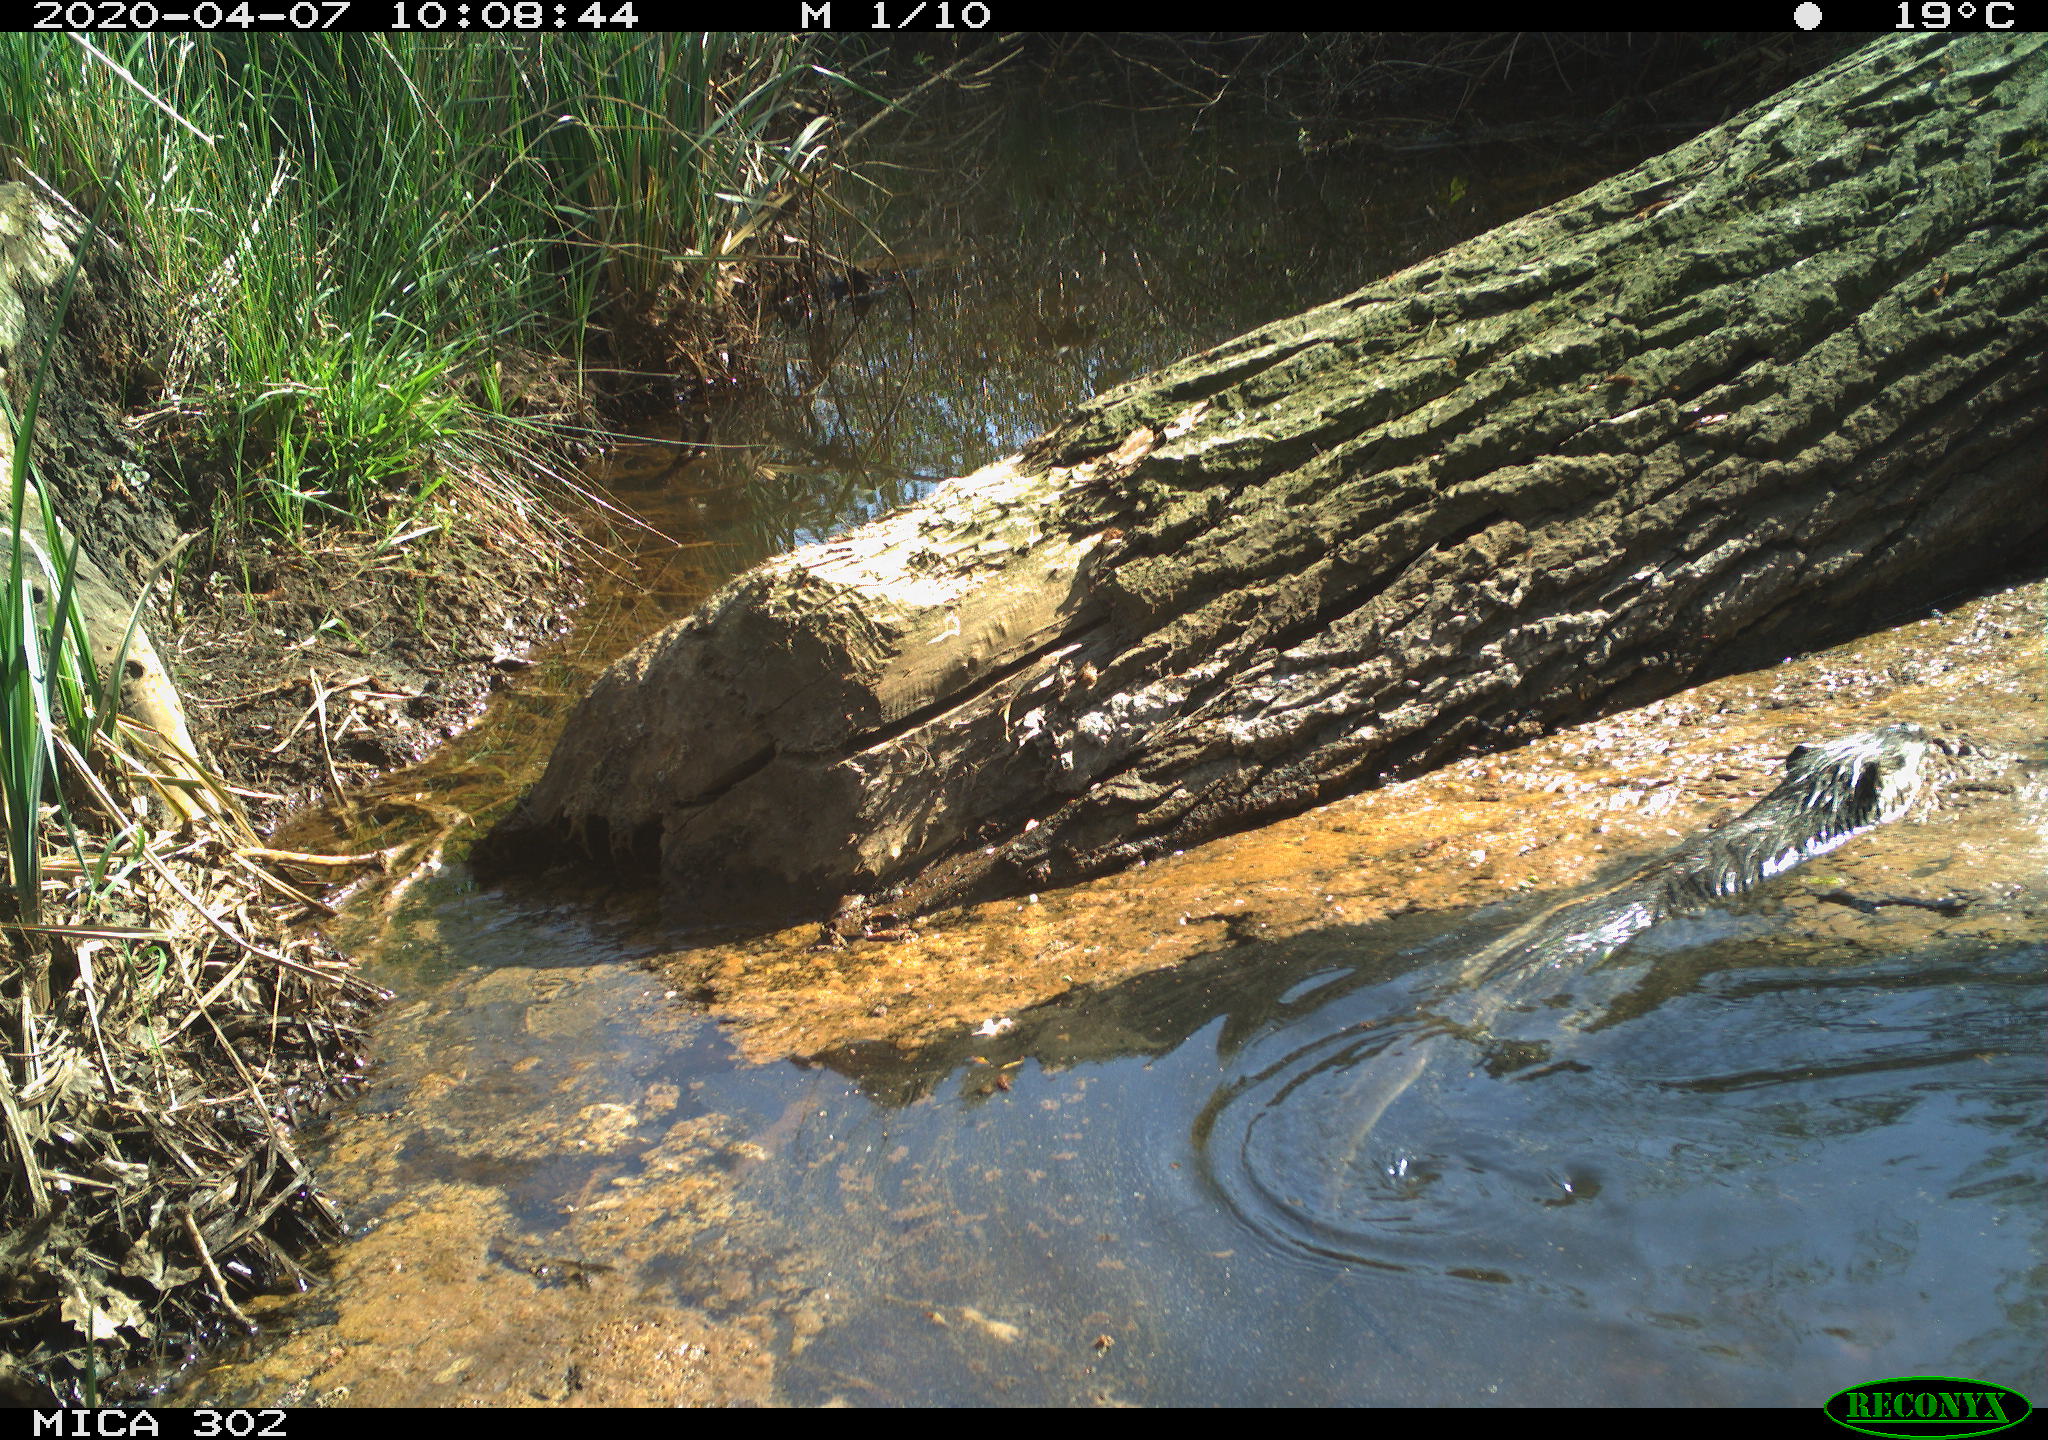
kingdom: Animalia
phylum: Chordata
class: Mammalia
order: Rodentia
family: Myocastoridae
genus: Myocastor
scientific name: Myocastor coypus
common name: Coypu
